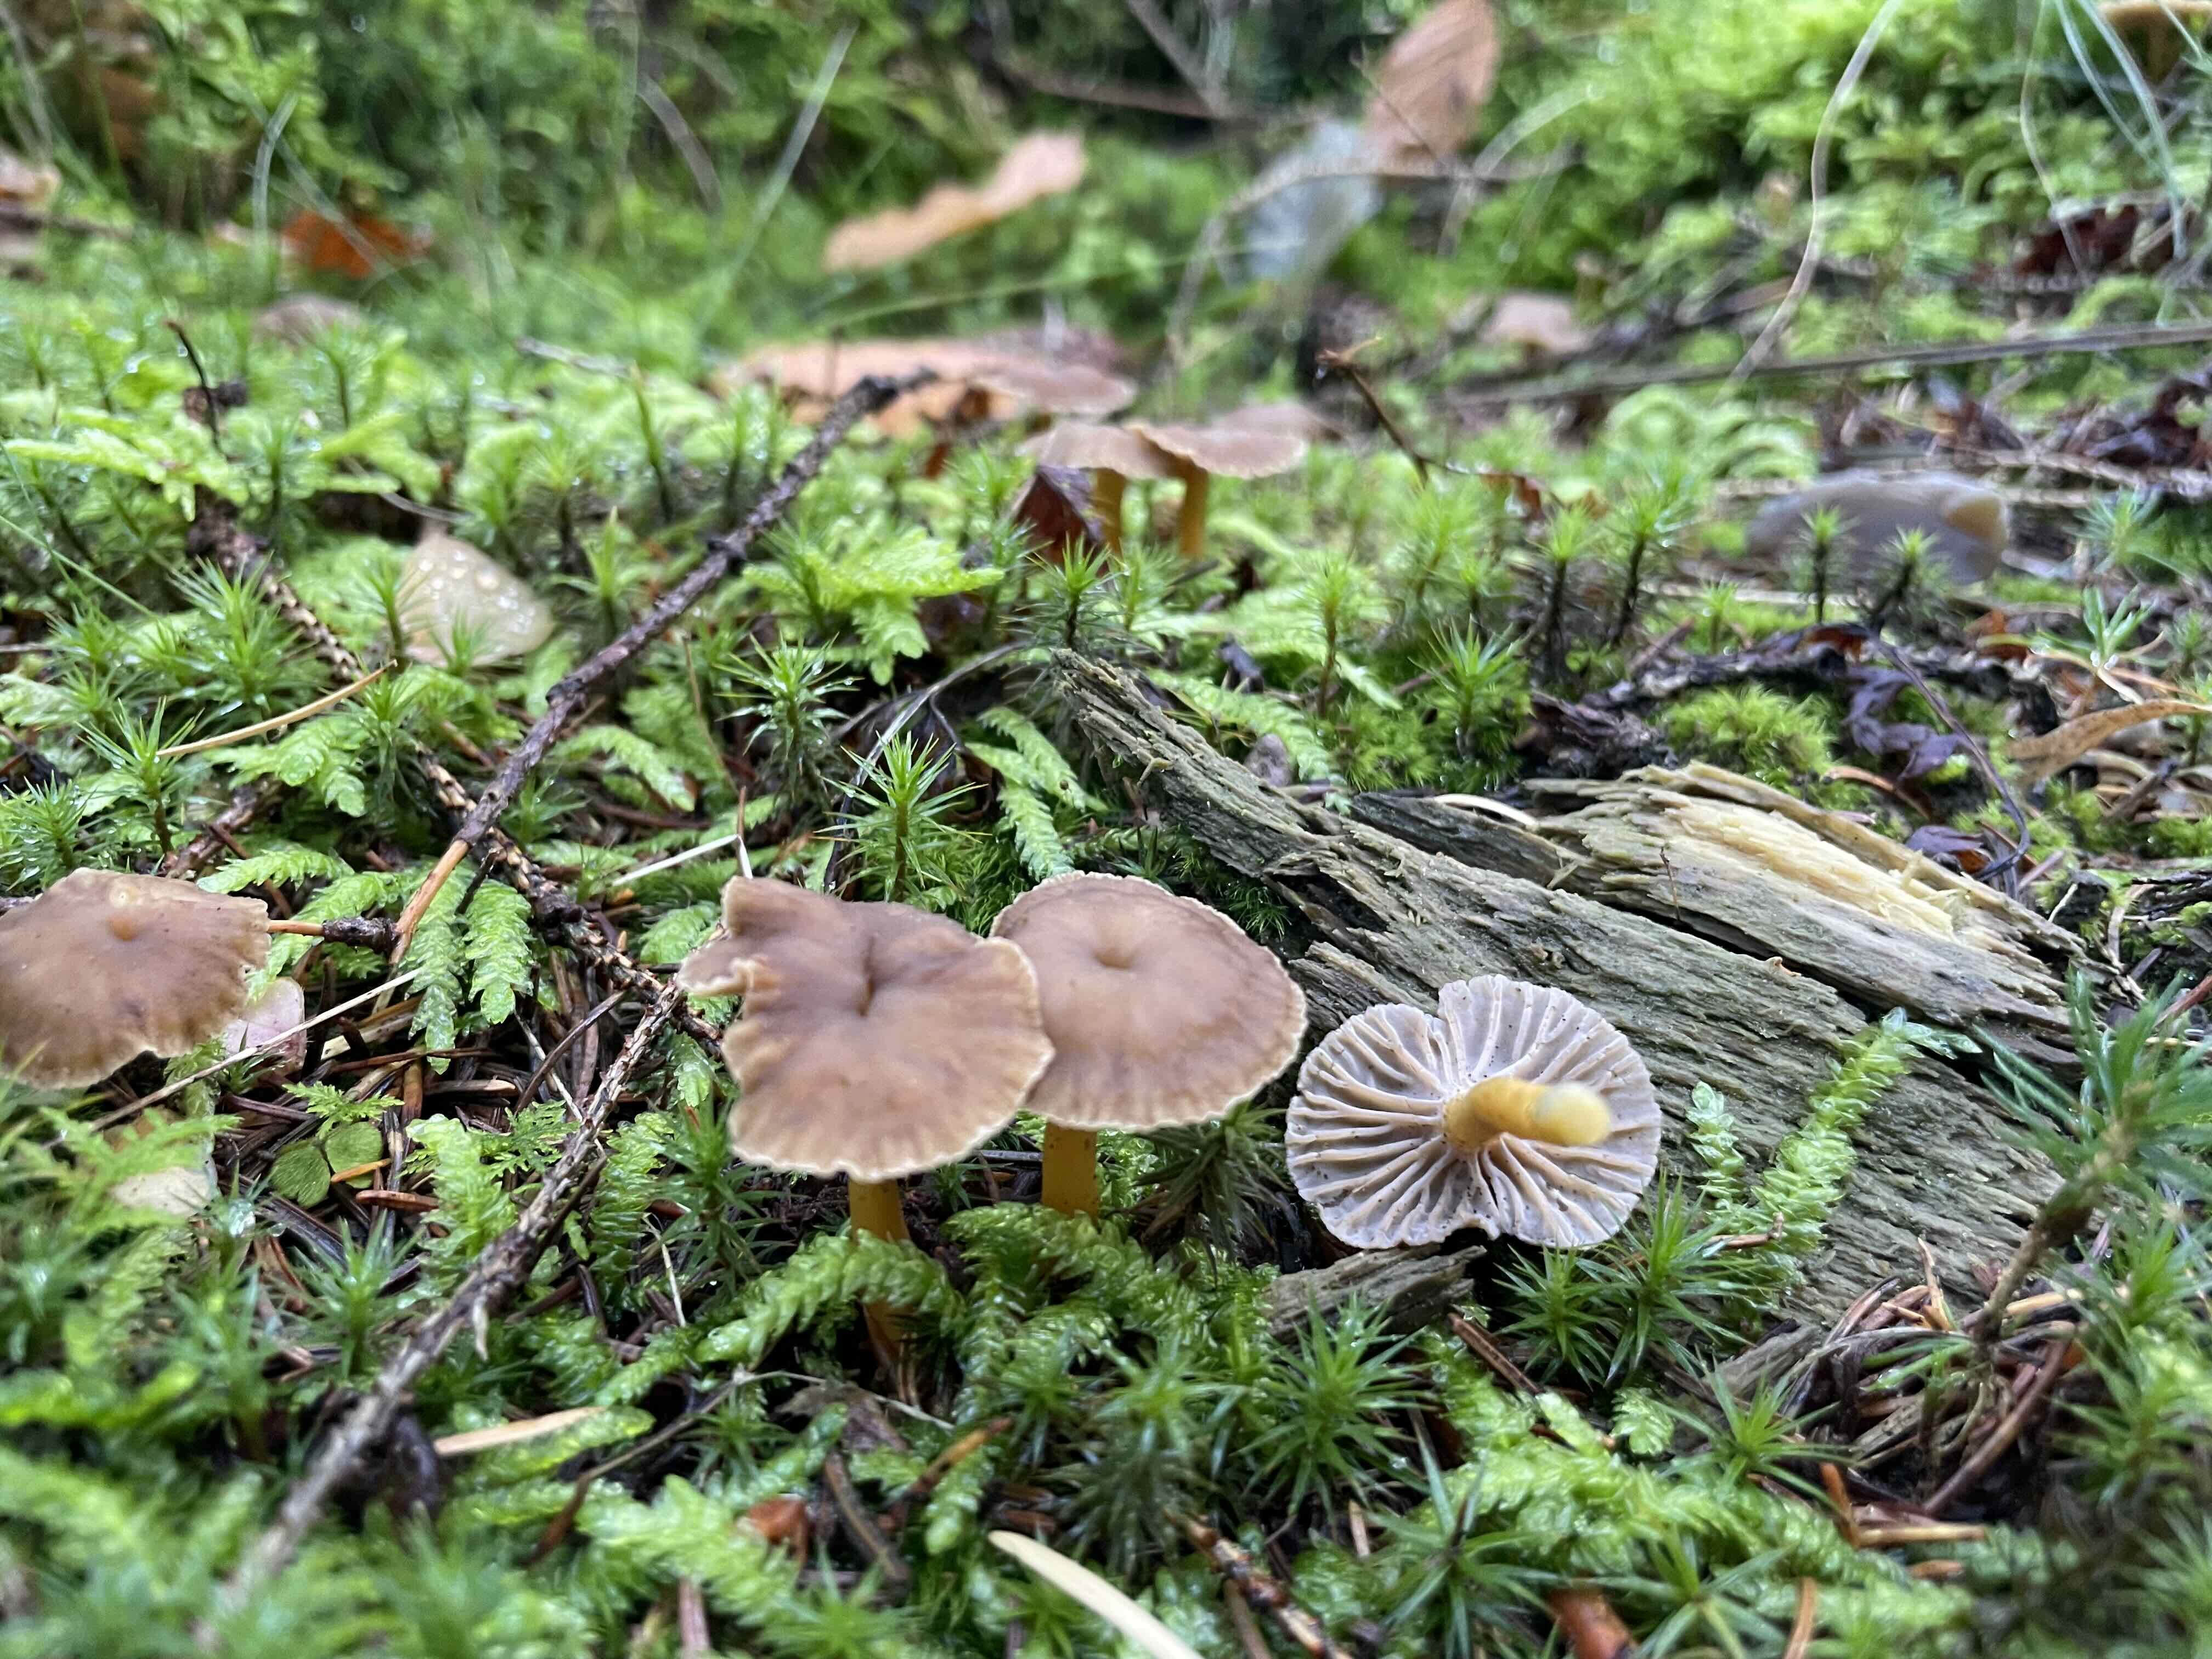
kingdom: Fungi
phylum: Basidiomycota
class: Agaricomycetes
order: Cantharellales
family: Hydnaceae
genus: Craterellus
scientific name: Craterellus tubaeformis
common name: tragt-kantarel
